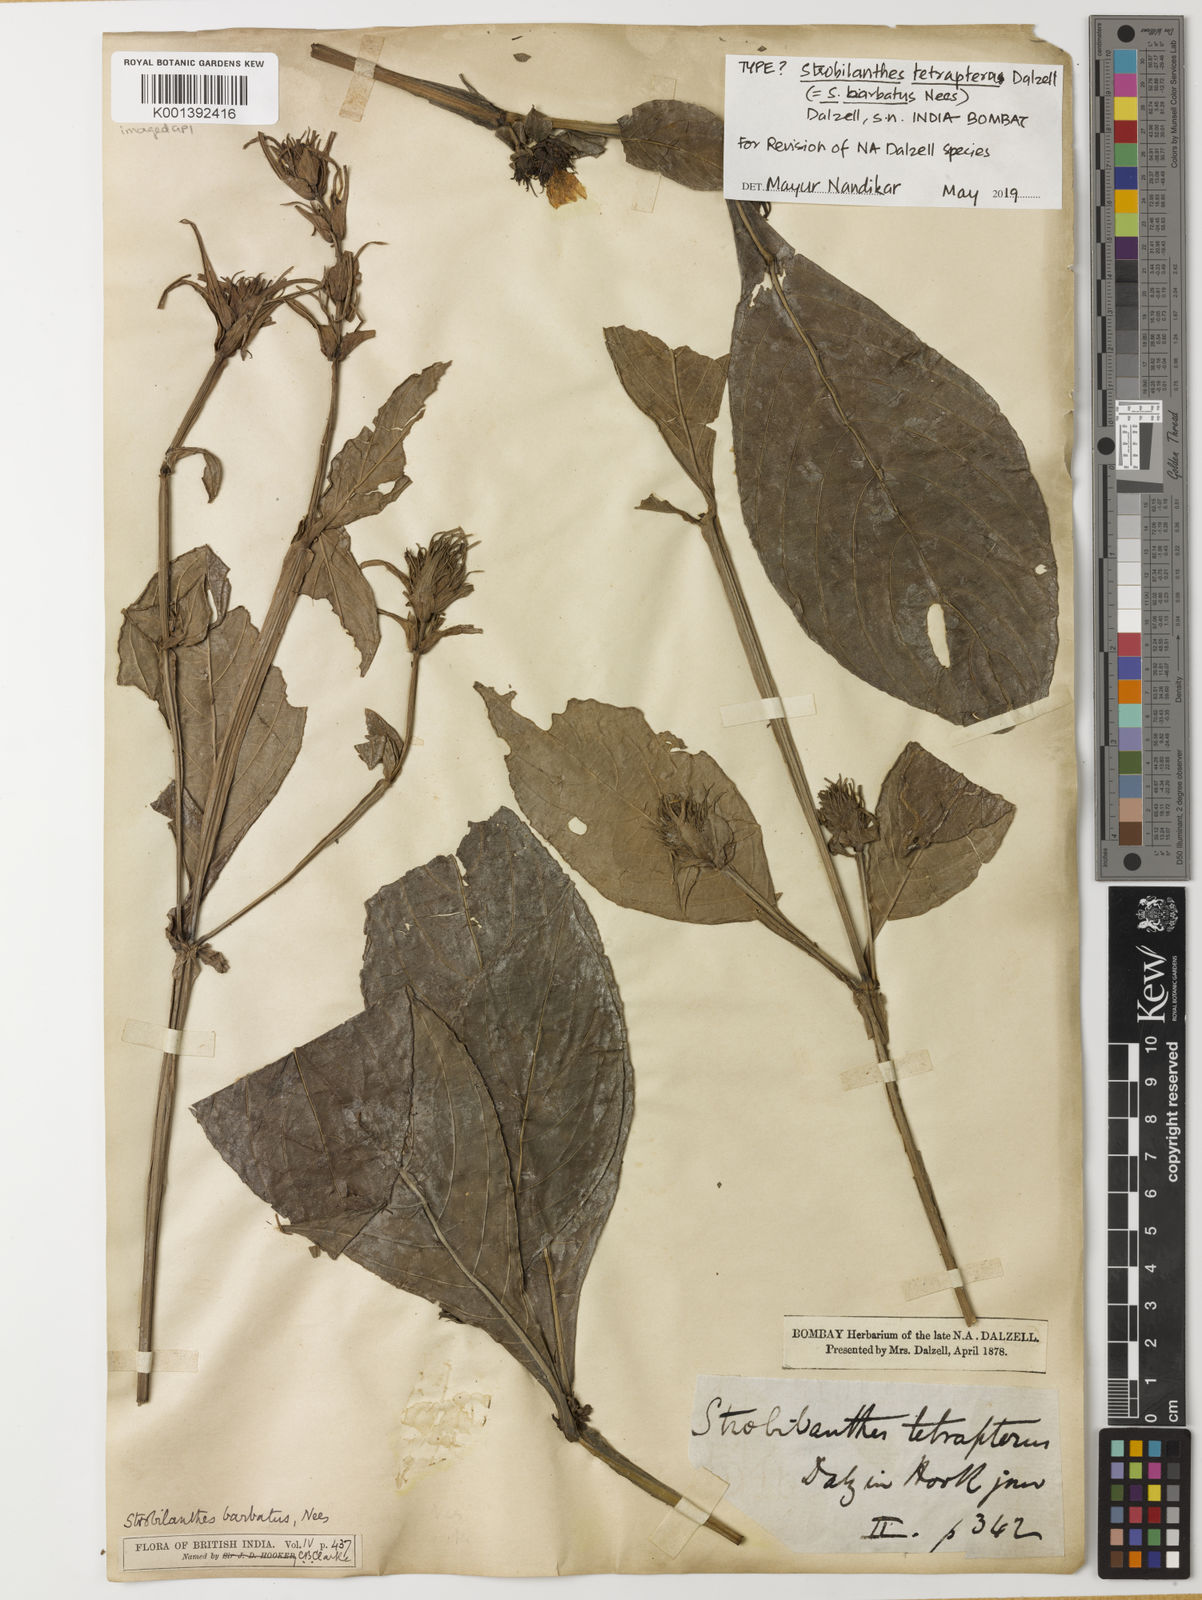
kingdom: Plantae
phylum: Tracheophyta
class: Magnoliopsida
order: Lamiales
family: Acanthaceae
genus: Strobilanthes
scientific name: Strobilanthes barbata
